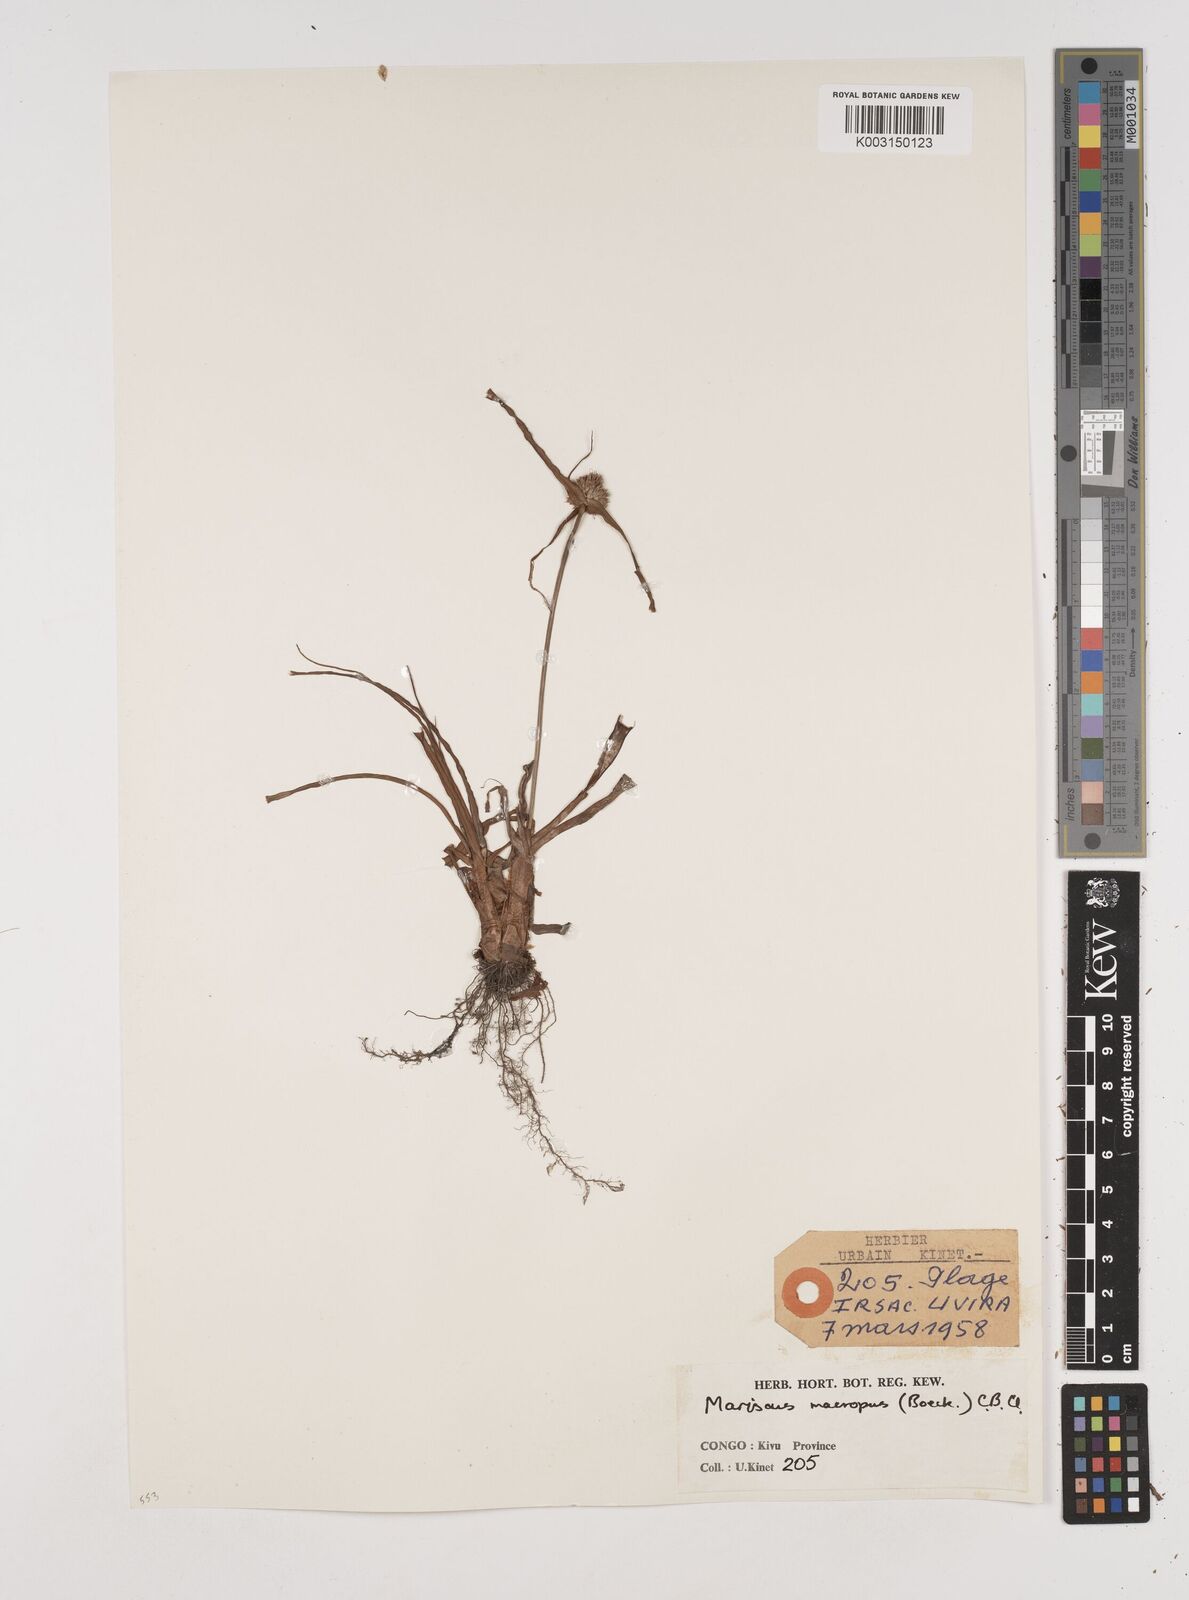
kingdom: Plantae
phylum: Tracheophyta
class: Liliopsida
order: Poales
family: Cyperaceae
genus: Cyperus
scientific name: Cyperus mollipes
